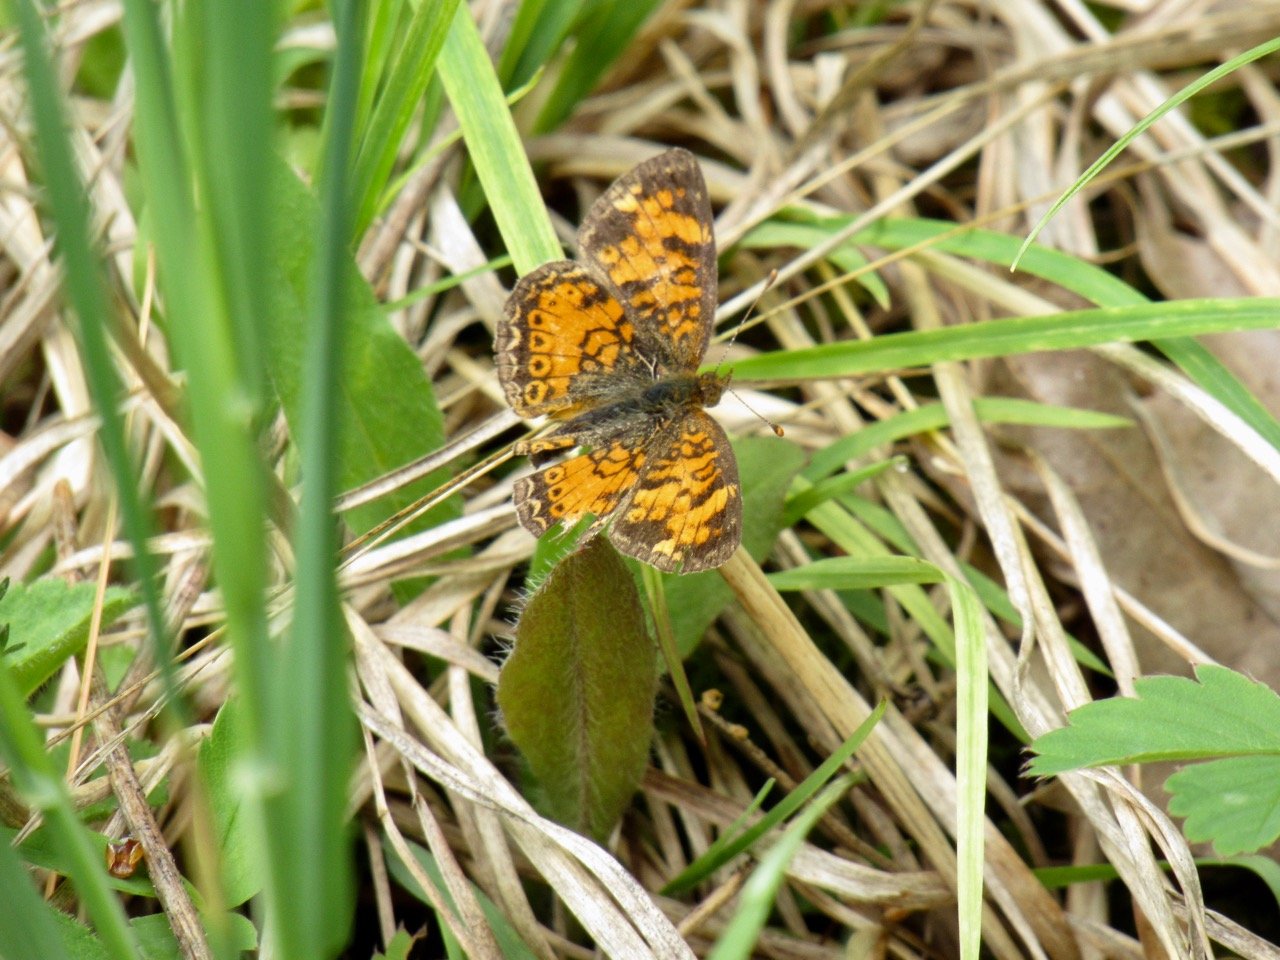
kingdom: Animalia
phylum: Arthropoda
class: Insecta
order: Lepidoptera
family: Nymphalidae
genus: Phyciodes
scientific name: Phyciodes tharos
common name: Pearl Crescent
